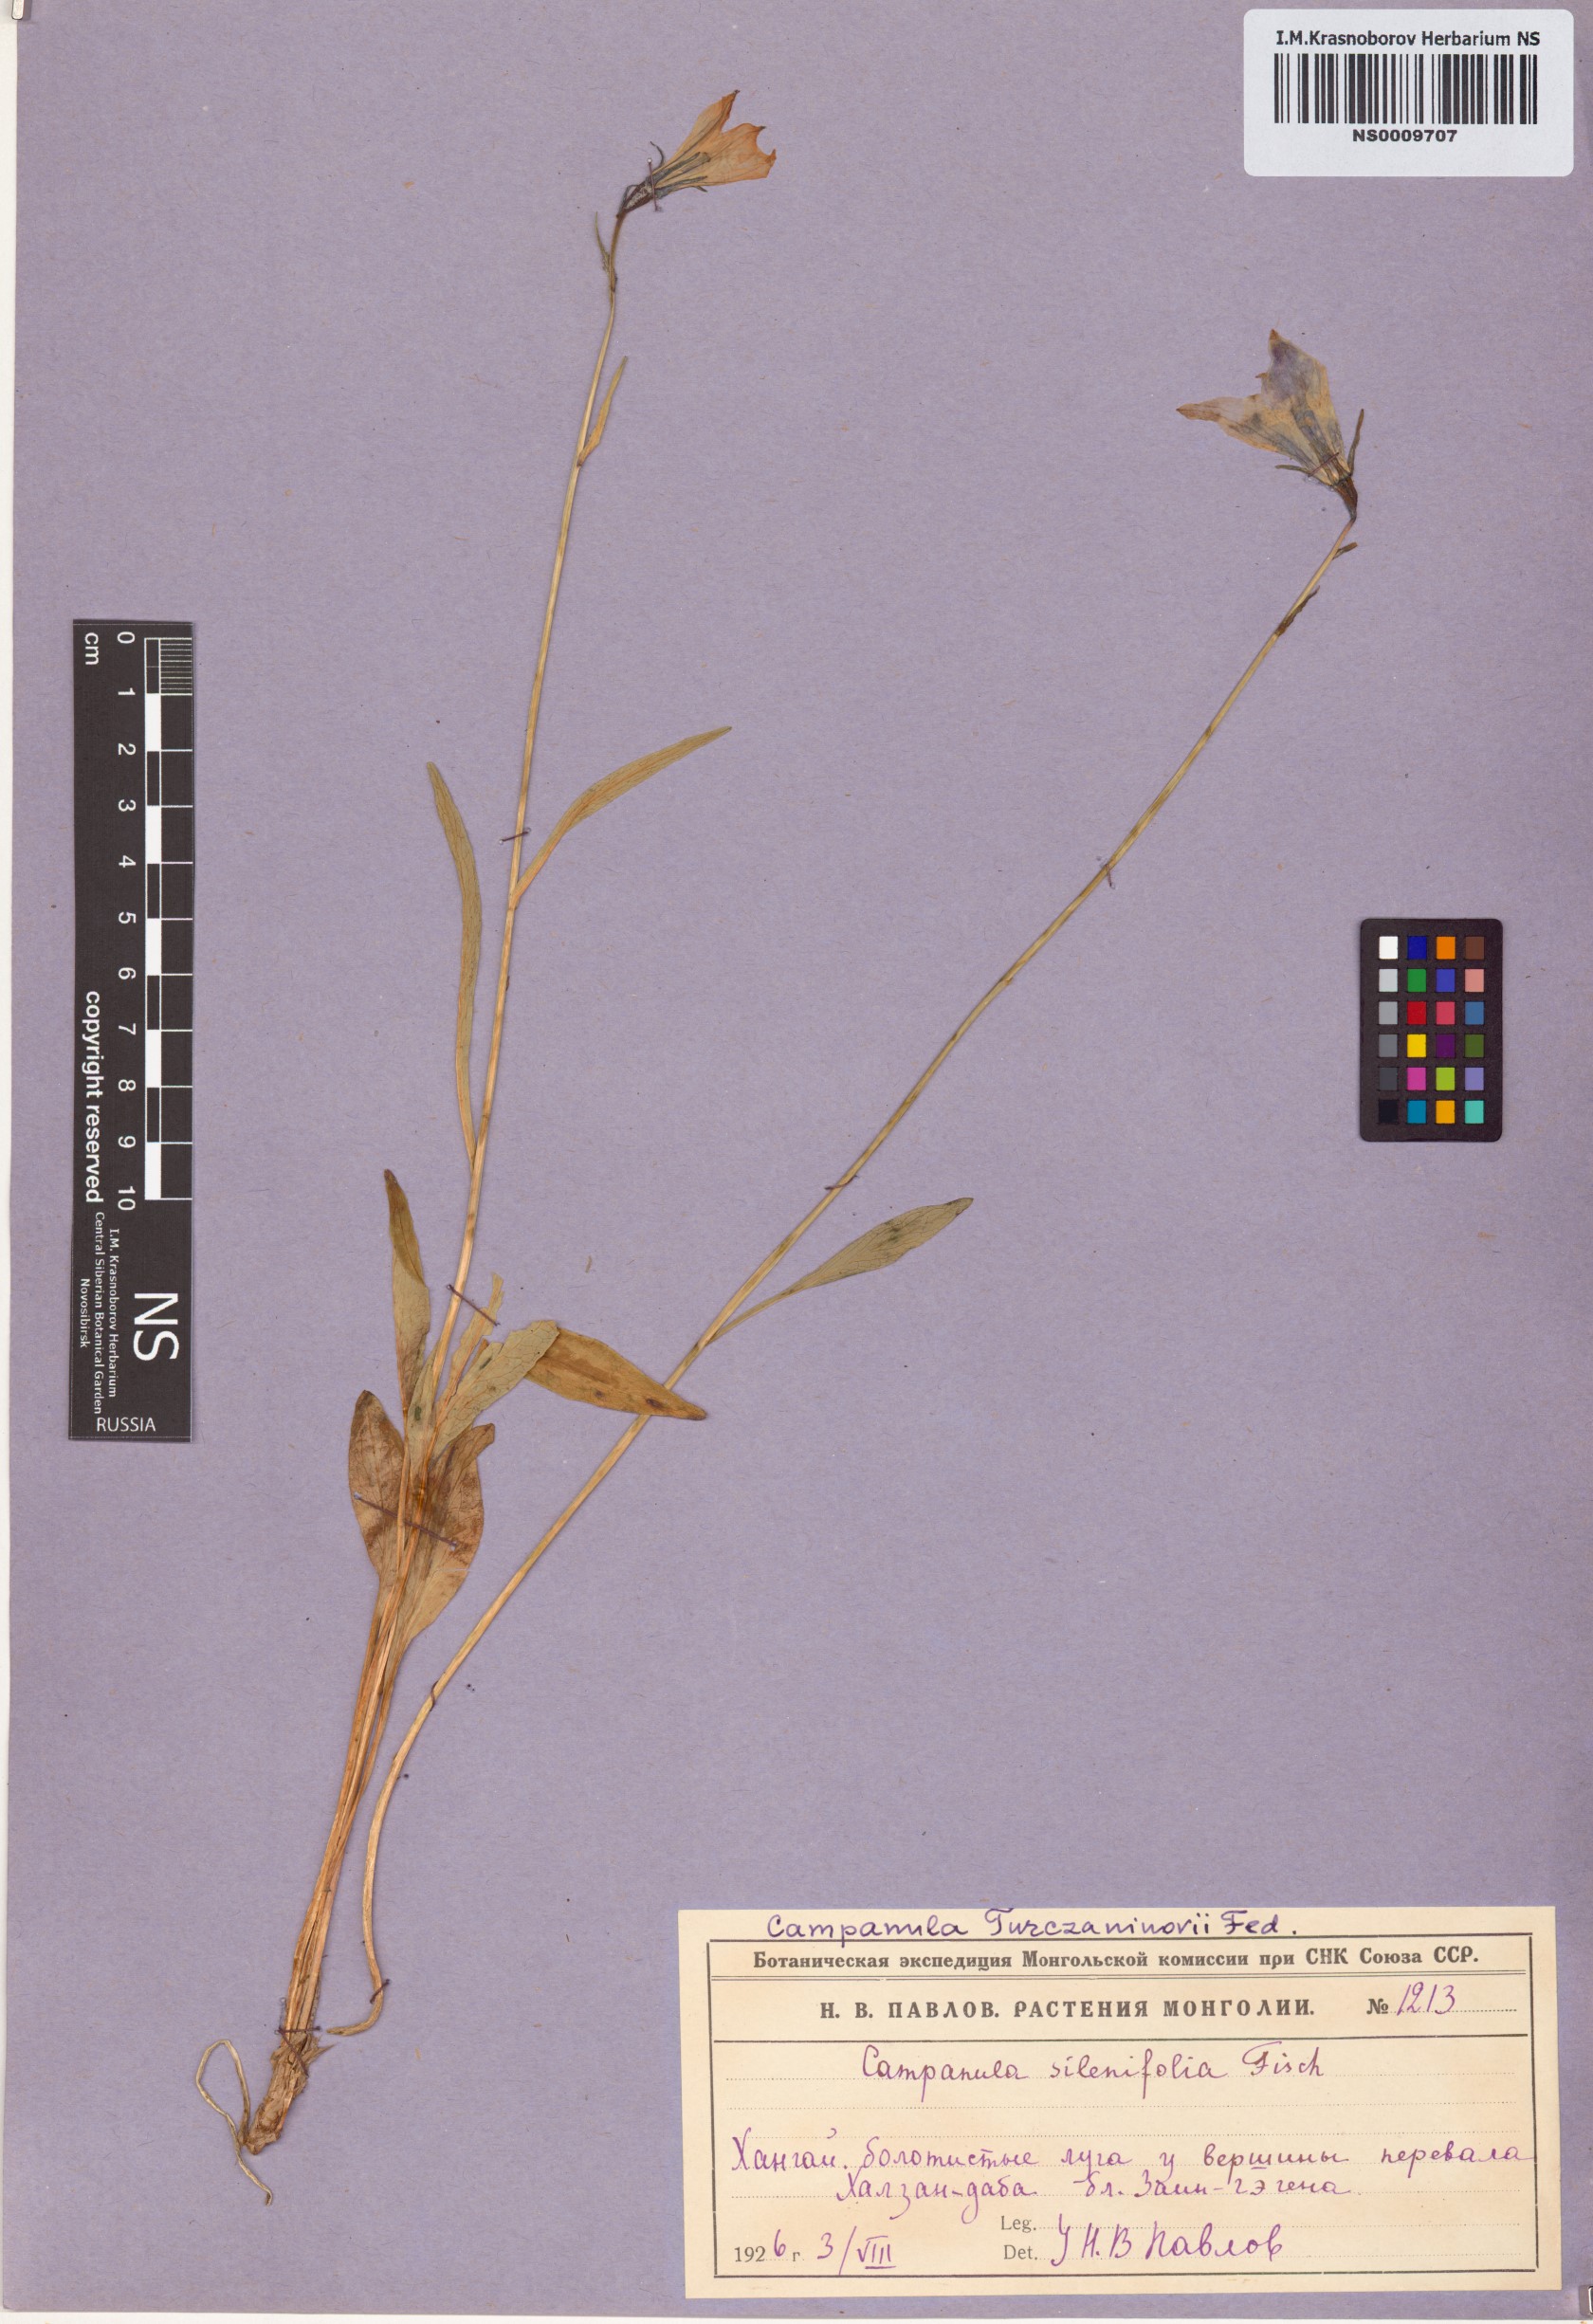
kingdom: Plantae
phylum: Tracheophyta
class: Magnoliopsida
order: Asterales
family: Campanulaceae
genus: Campanula
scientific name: Campanula stevenii
